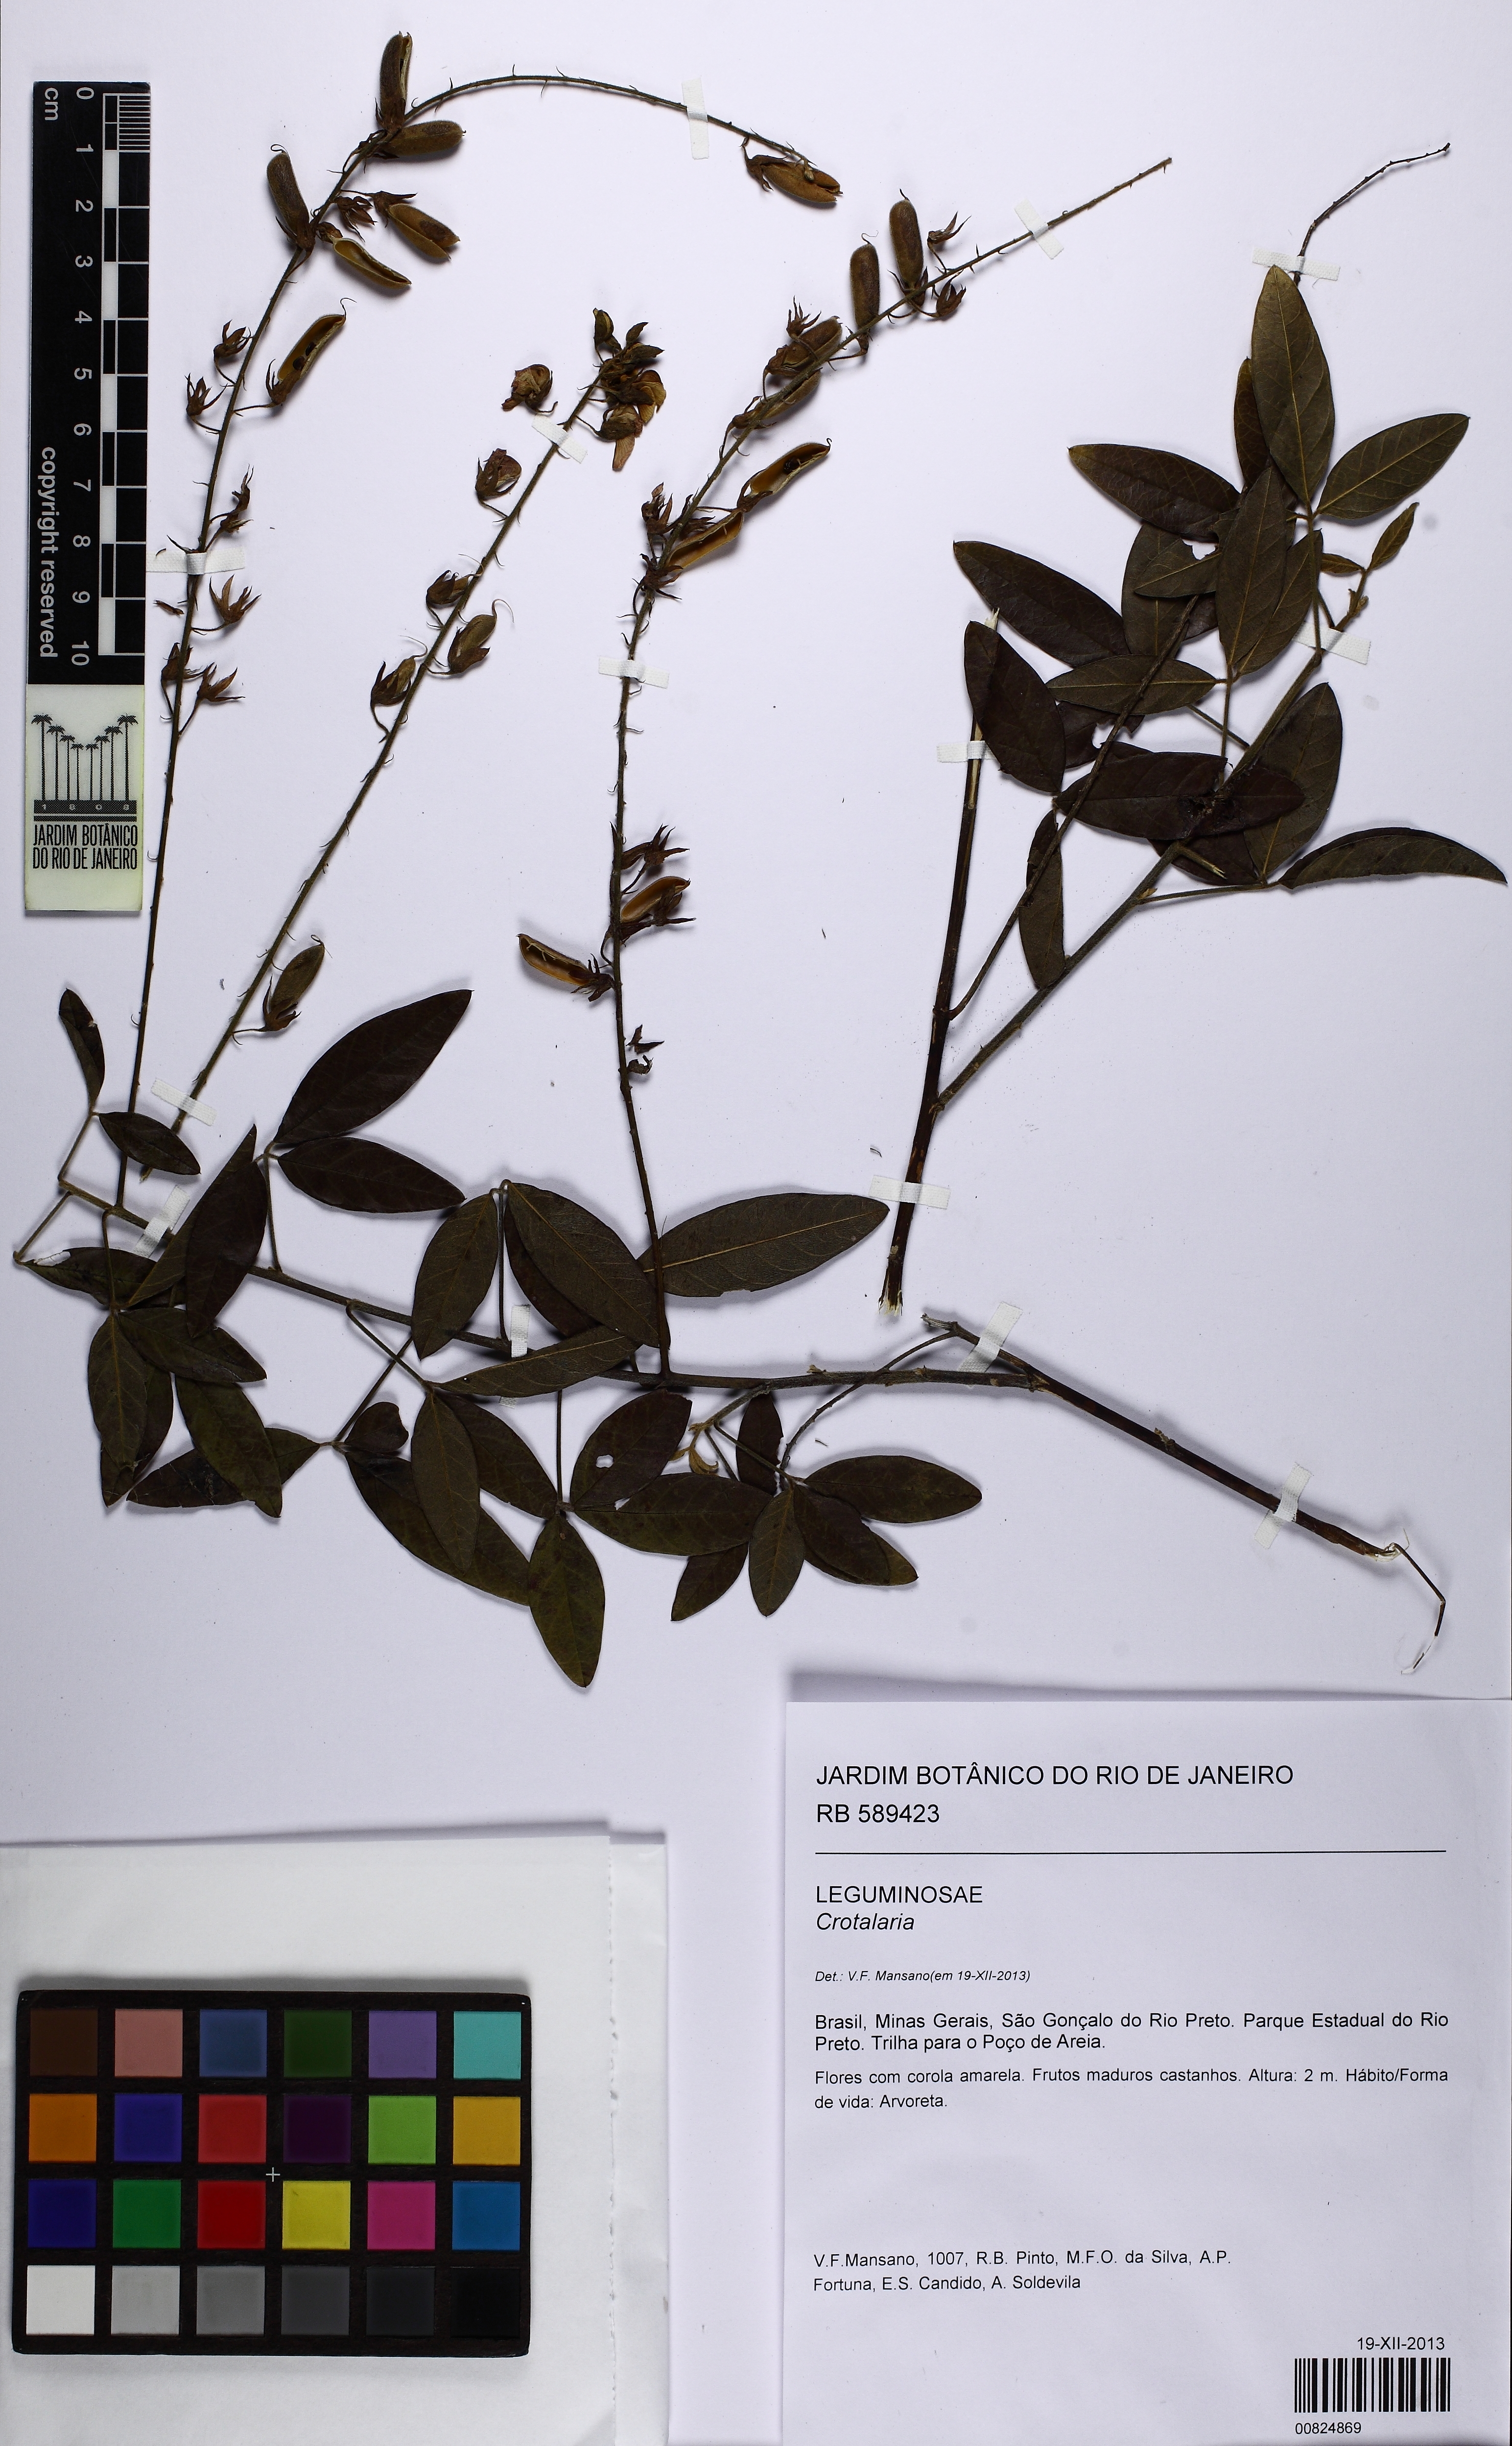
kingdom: Plantae
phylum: Tracheophyta
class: Magnoliopsida
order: Fabales
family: Fabaceae
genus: Crotalaria
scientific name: Crotalaria
